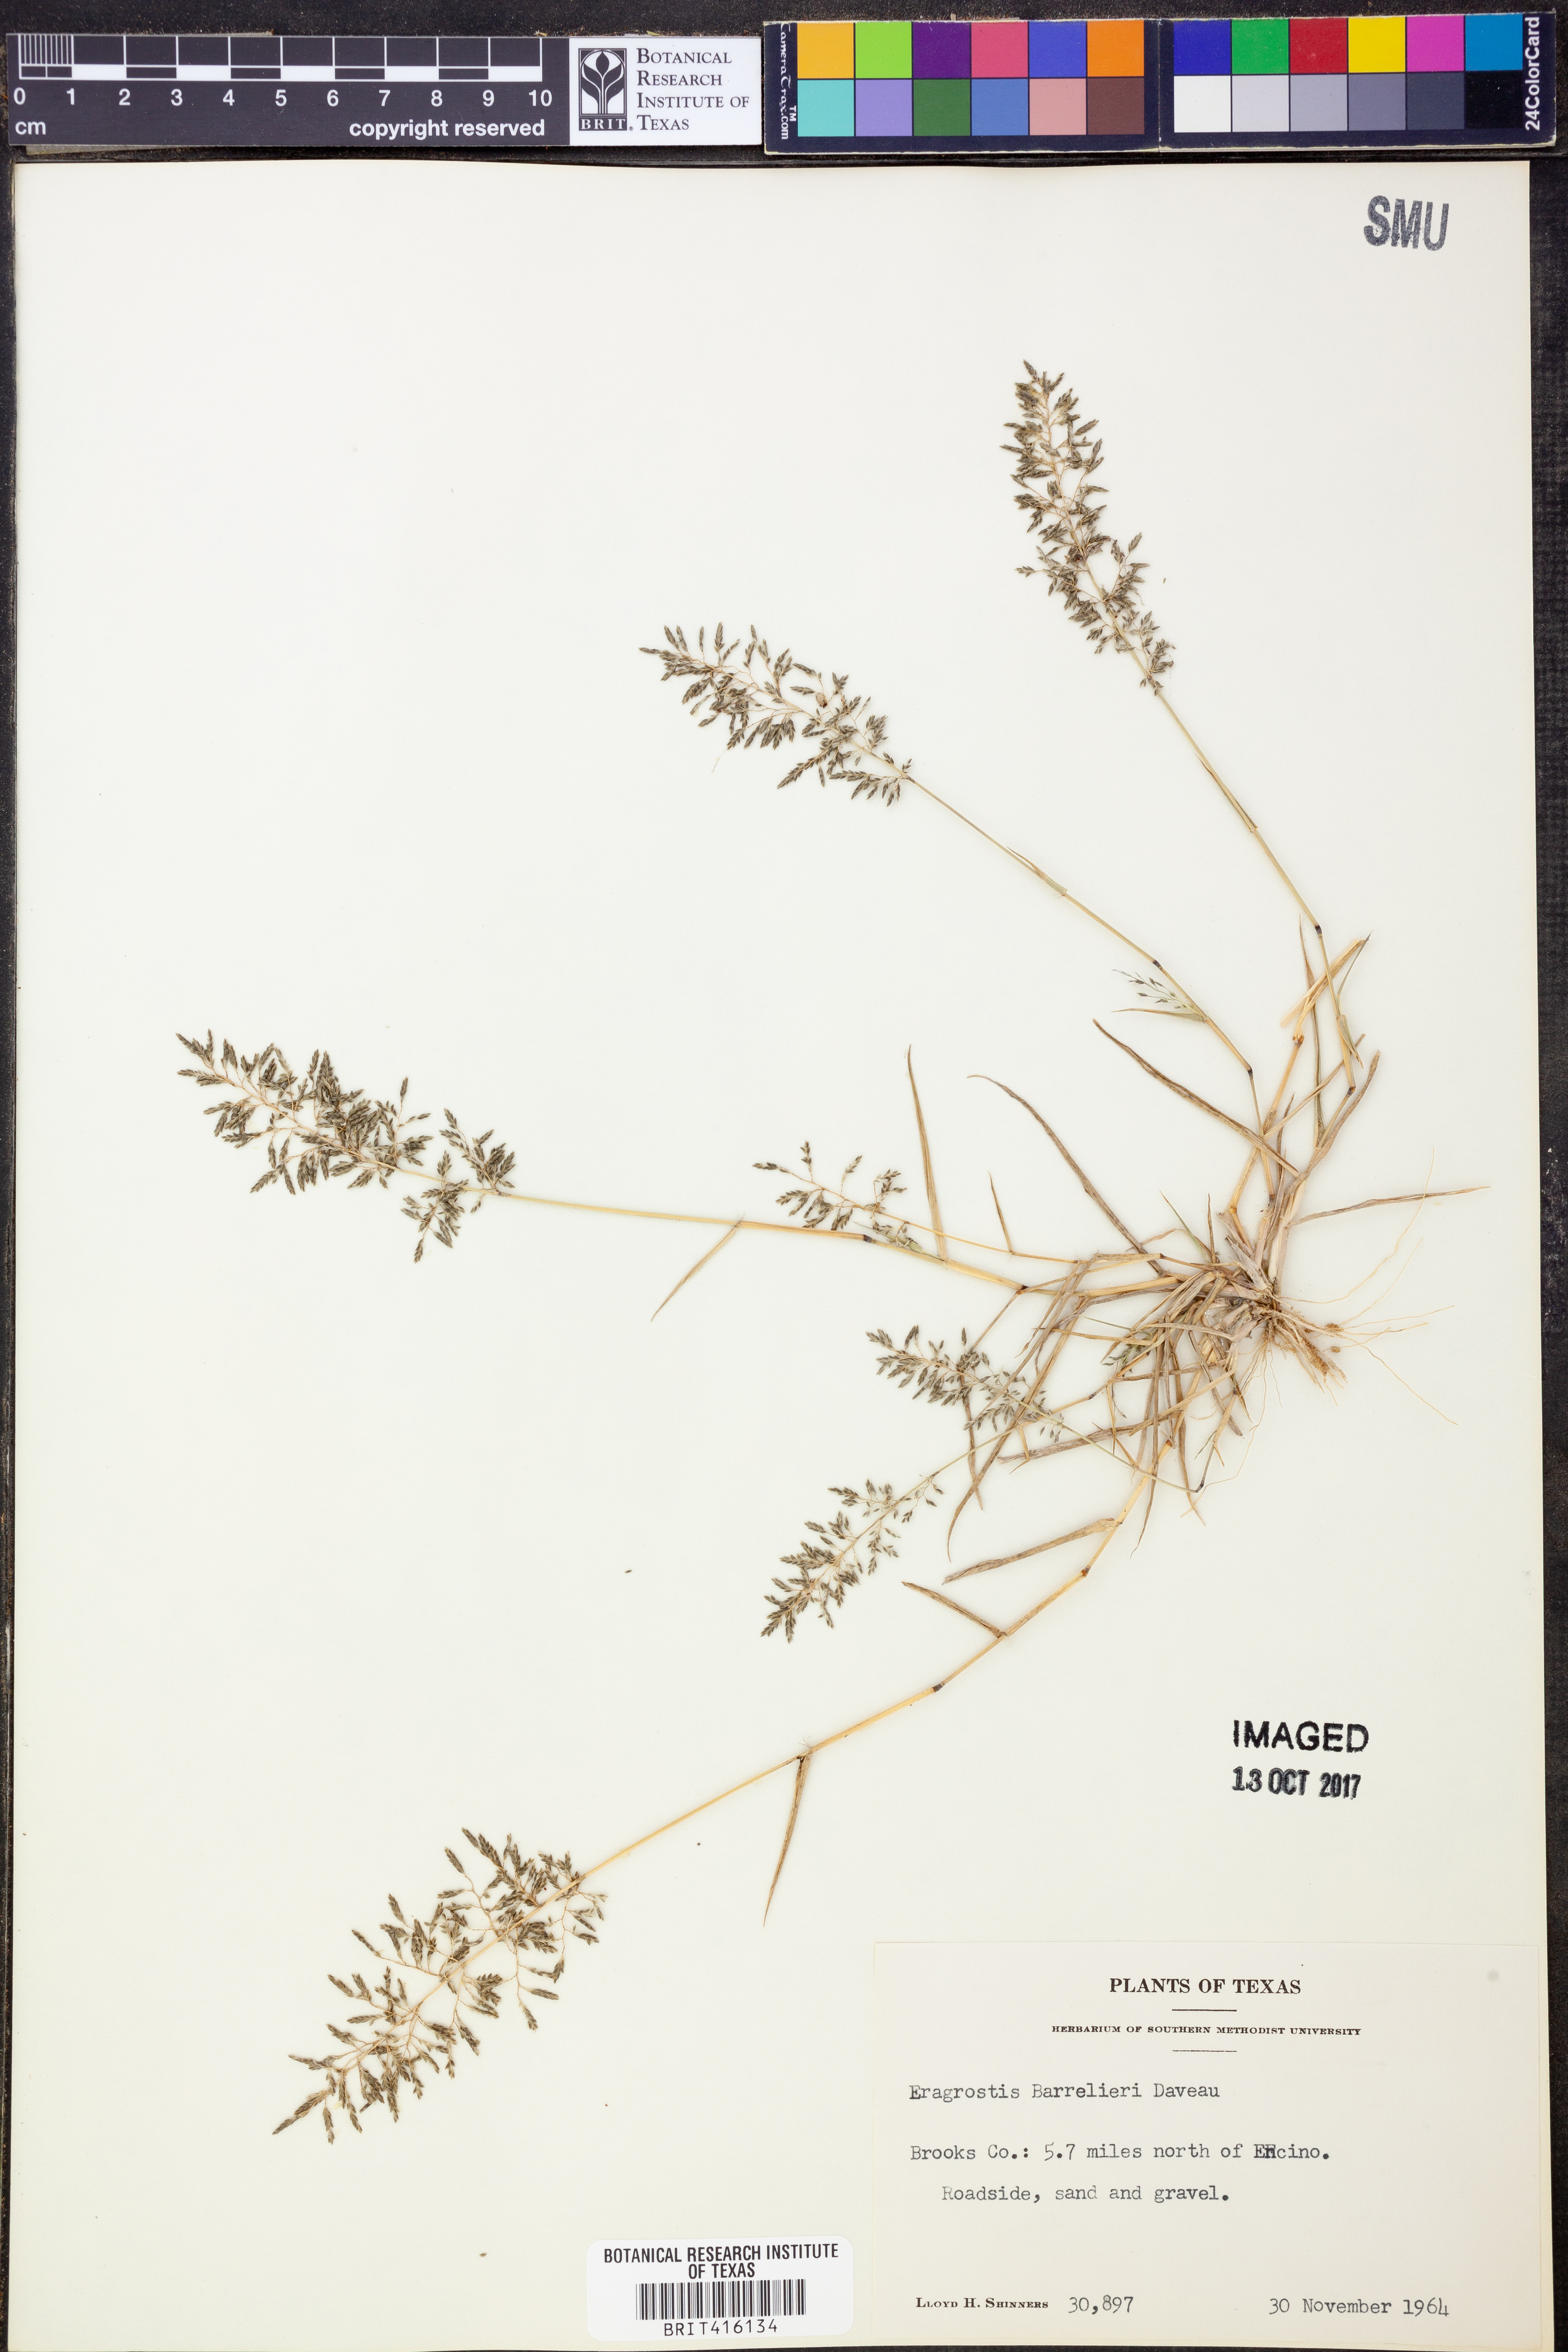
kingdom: Plantae
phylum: Tracheophyta
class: Liliopsida
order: Poales
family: Poaceae
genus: Eragrostis
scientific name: Eragrostis barrelieri
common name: Mediterranean lovegrass
